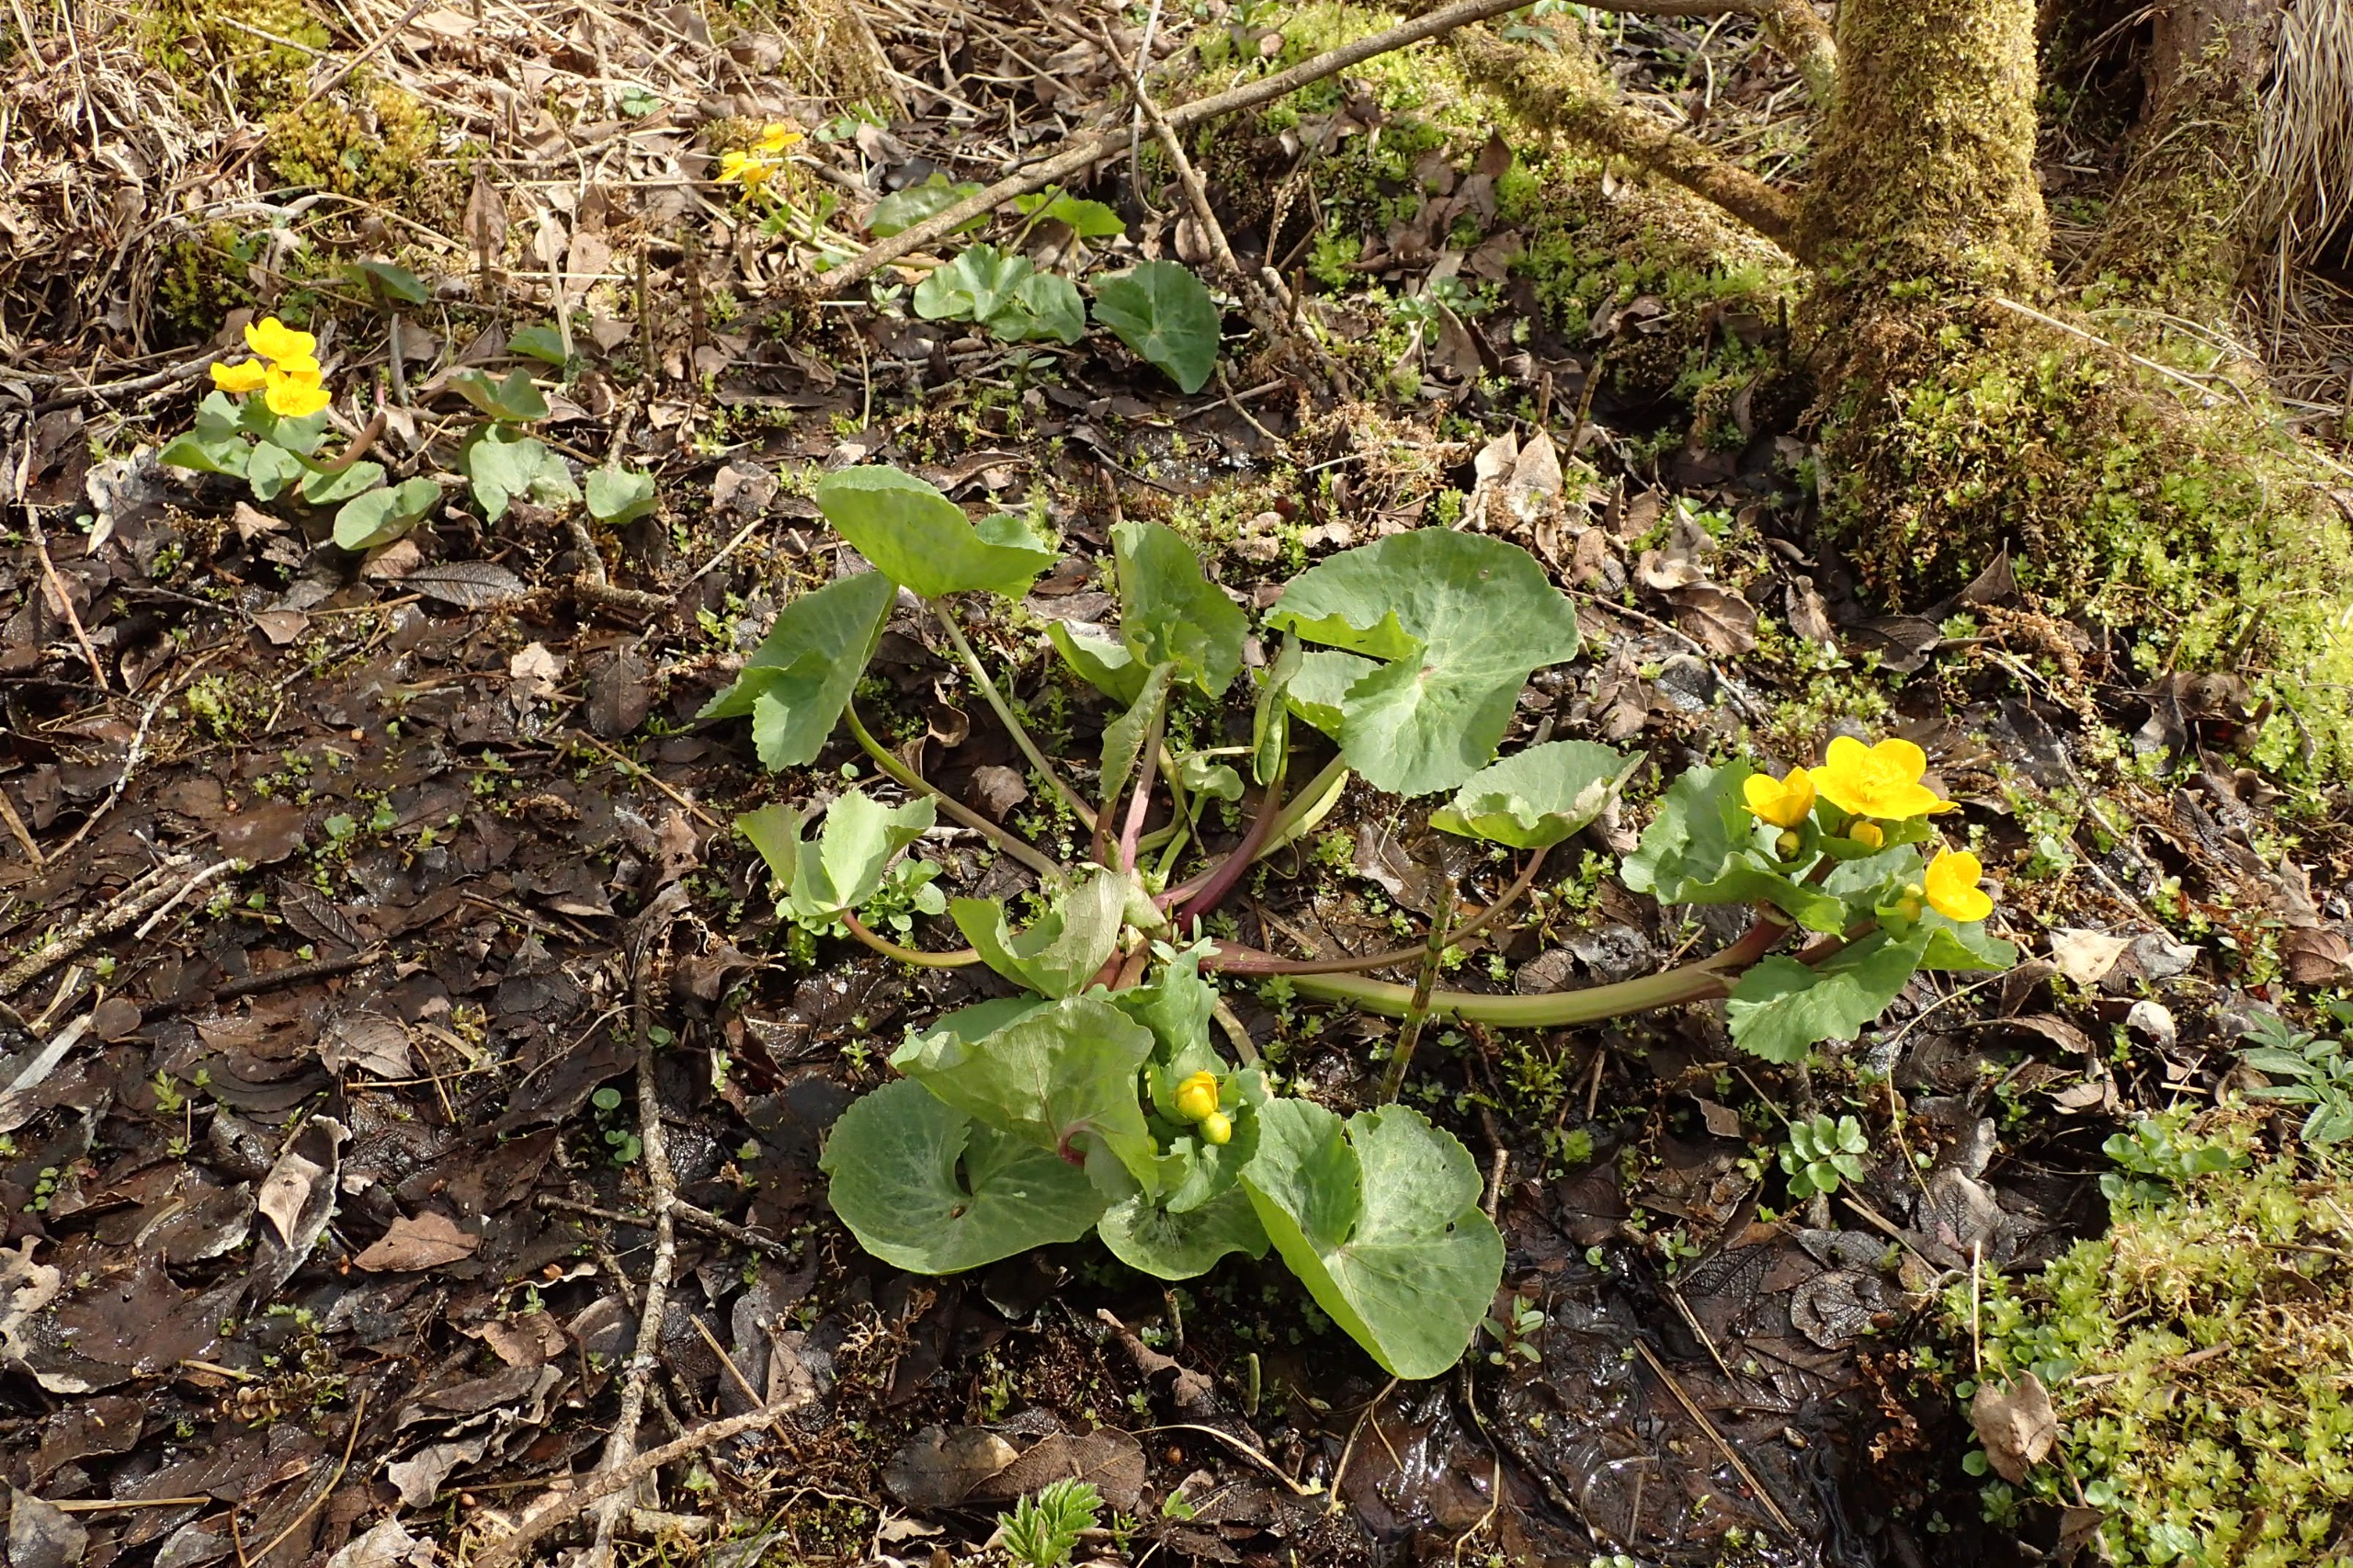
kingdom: Plantae
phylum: Tracheophyta
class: Magnoliopsida
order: Ranunculales
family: Ranunculaceae
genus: Caltha
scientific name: Caltha palustris
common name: Eng-kabbeleje
